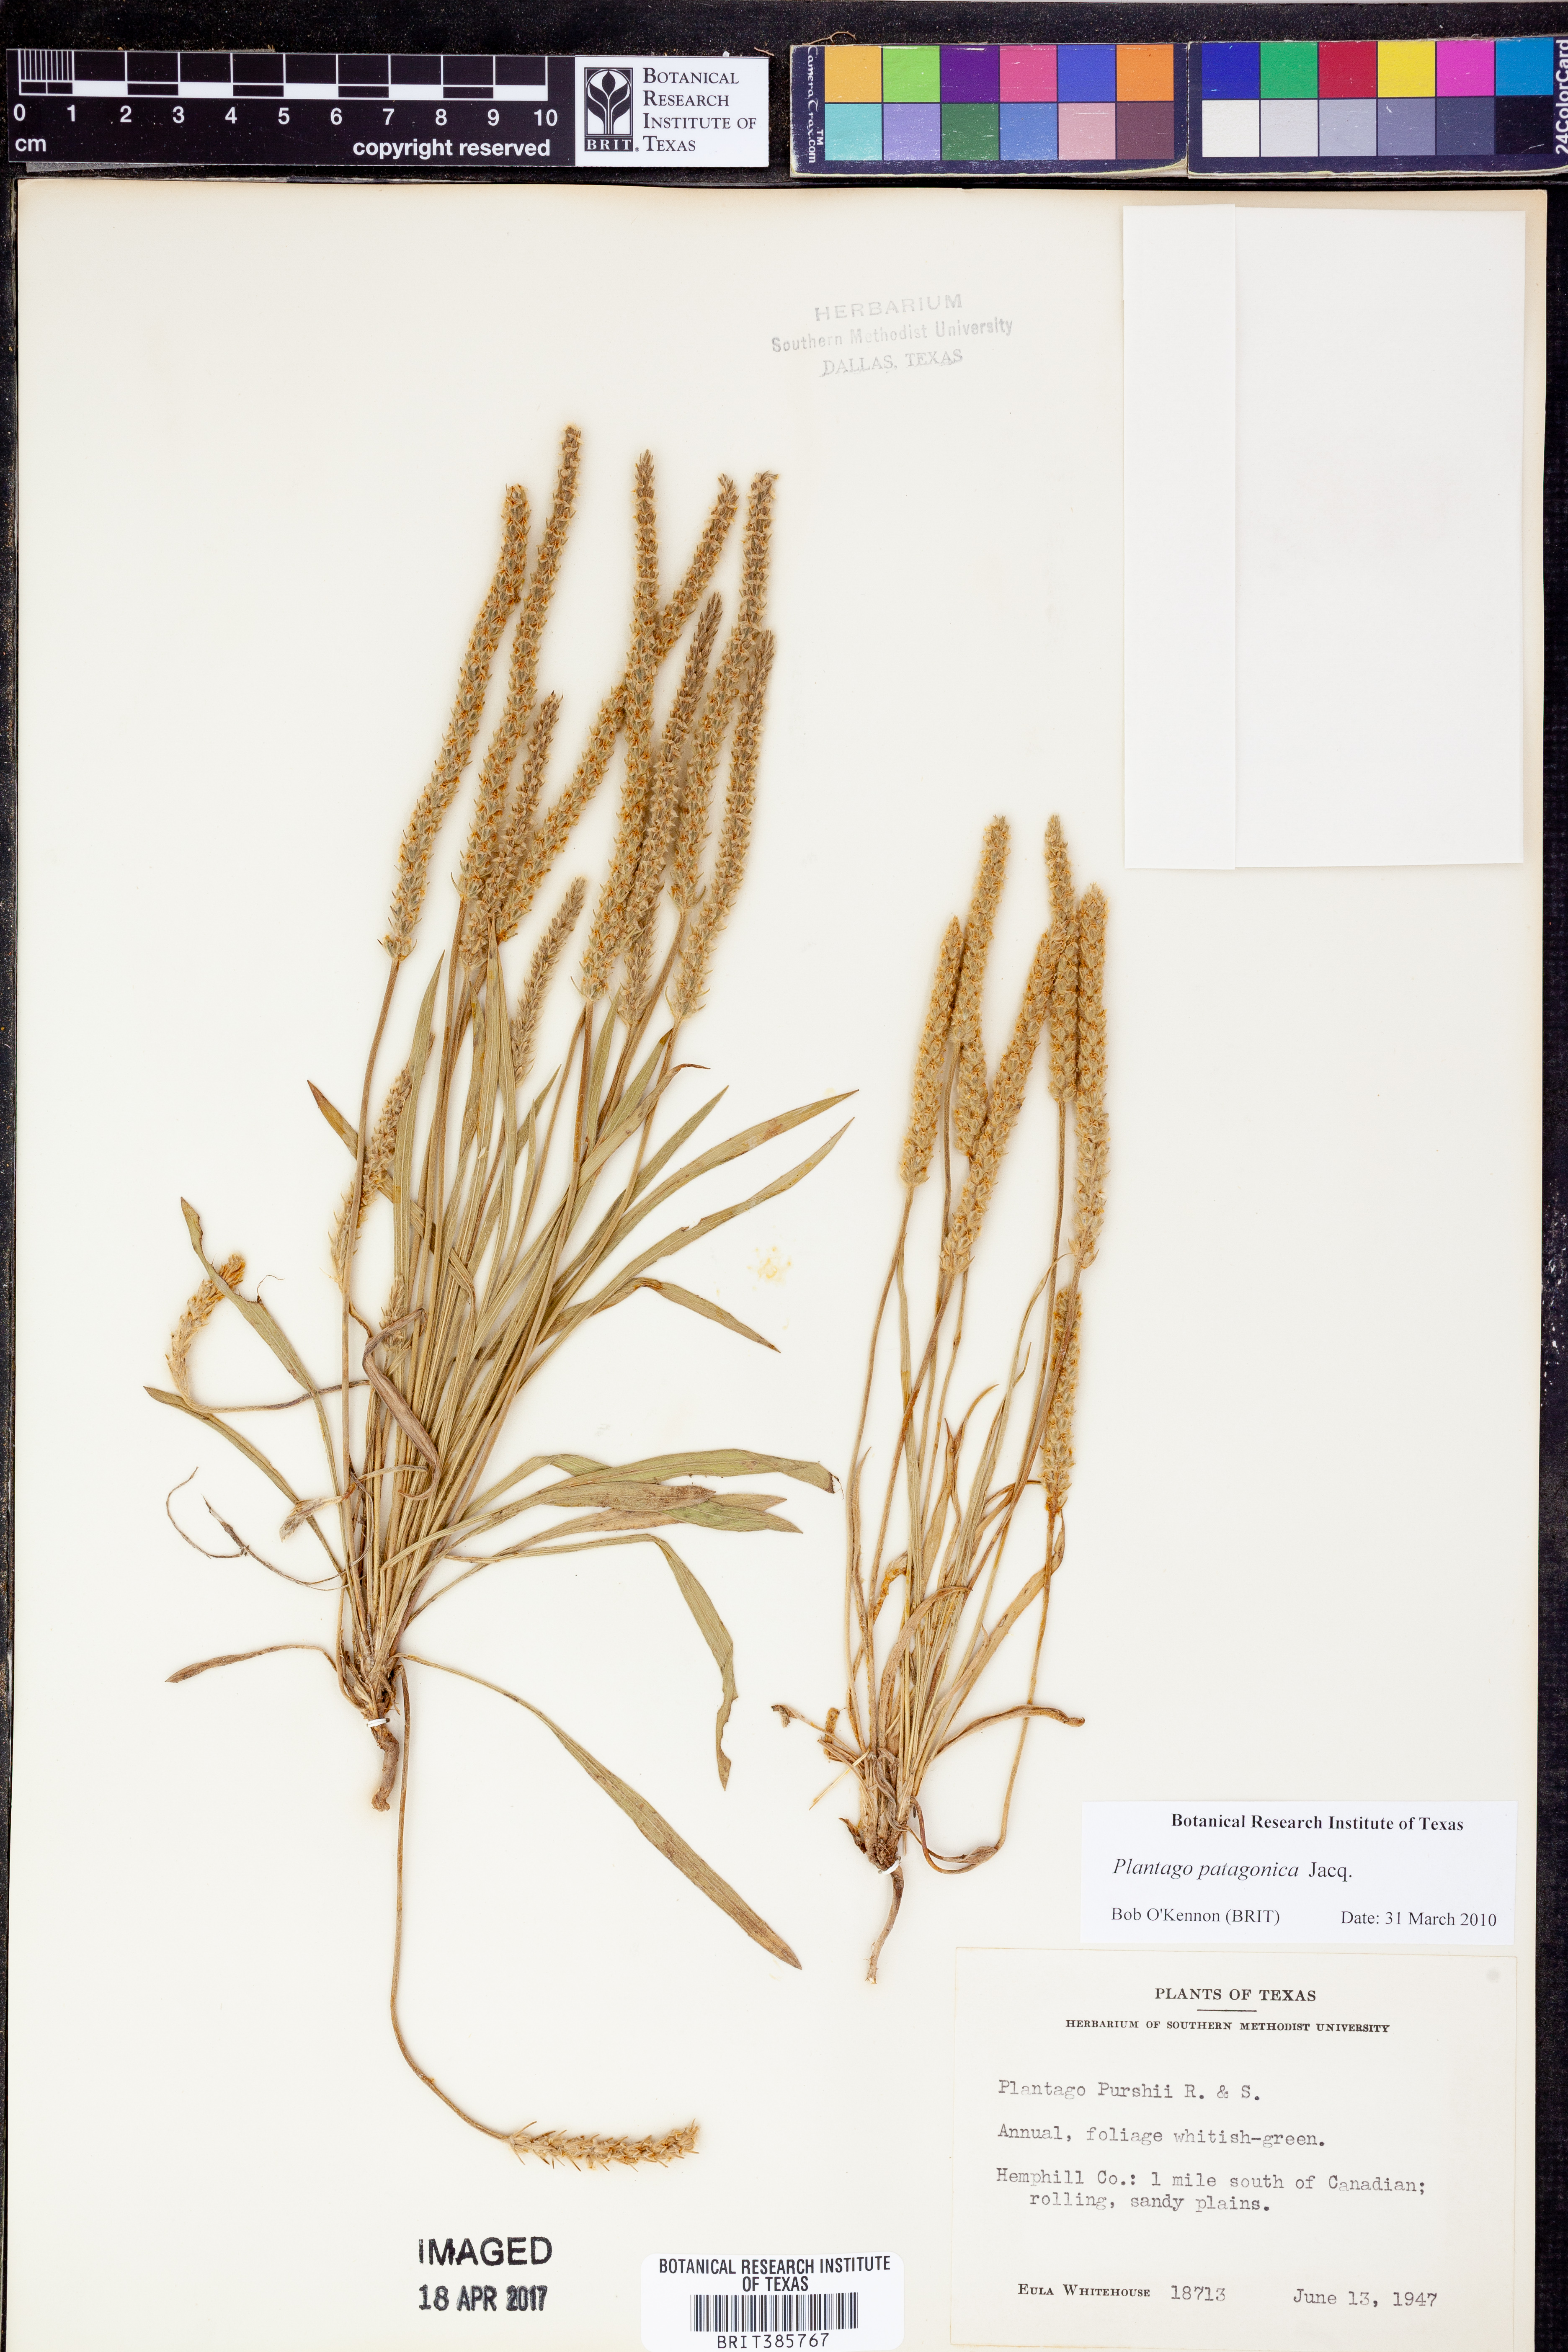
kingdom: Plantae
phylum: Tracheophyta
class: Magnoliopsida
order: Lamiales
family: Plantaginaceae
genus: Plantago
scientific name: Plantago patagonica
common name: Patagonia indian-wheat
